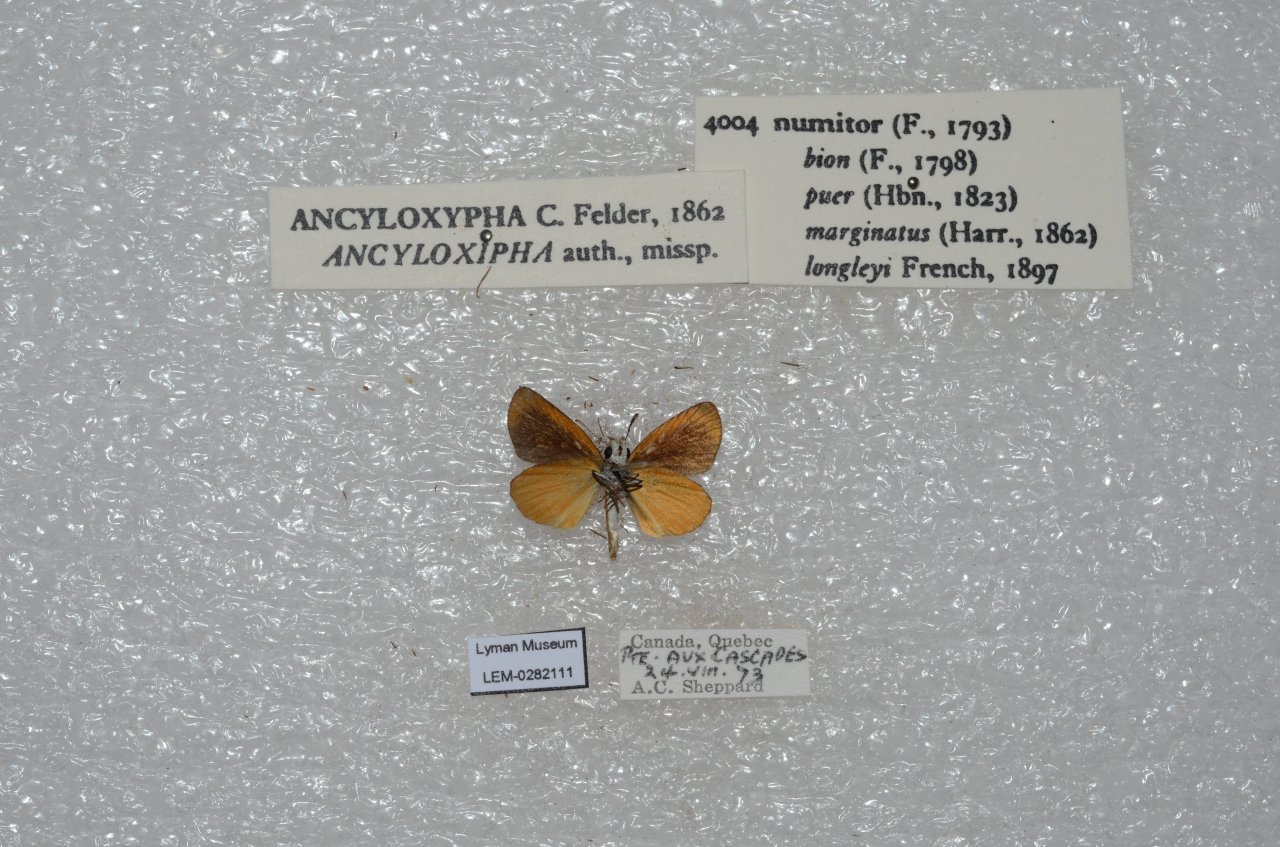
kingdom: Animalia
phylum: Arthropoda
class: Insecta
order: Lepidoptera
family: Hesperiidae
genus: Ancyloxypha
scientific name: Ancyloxypha numitor
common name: Least Skipper
